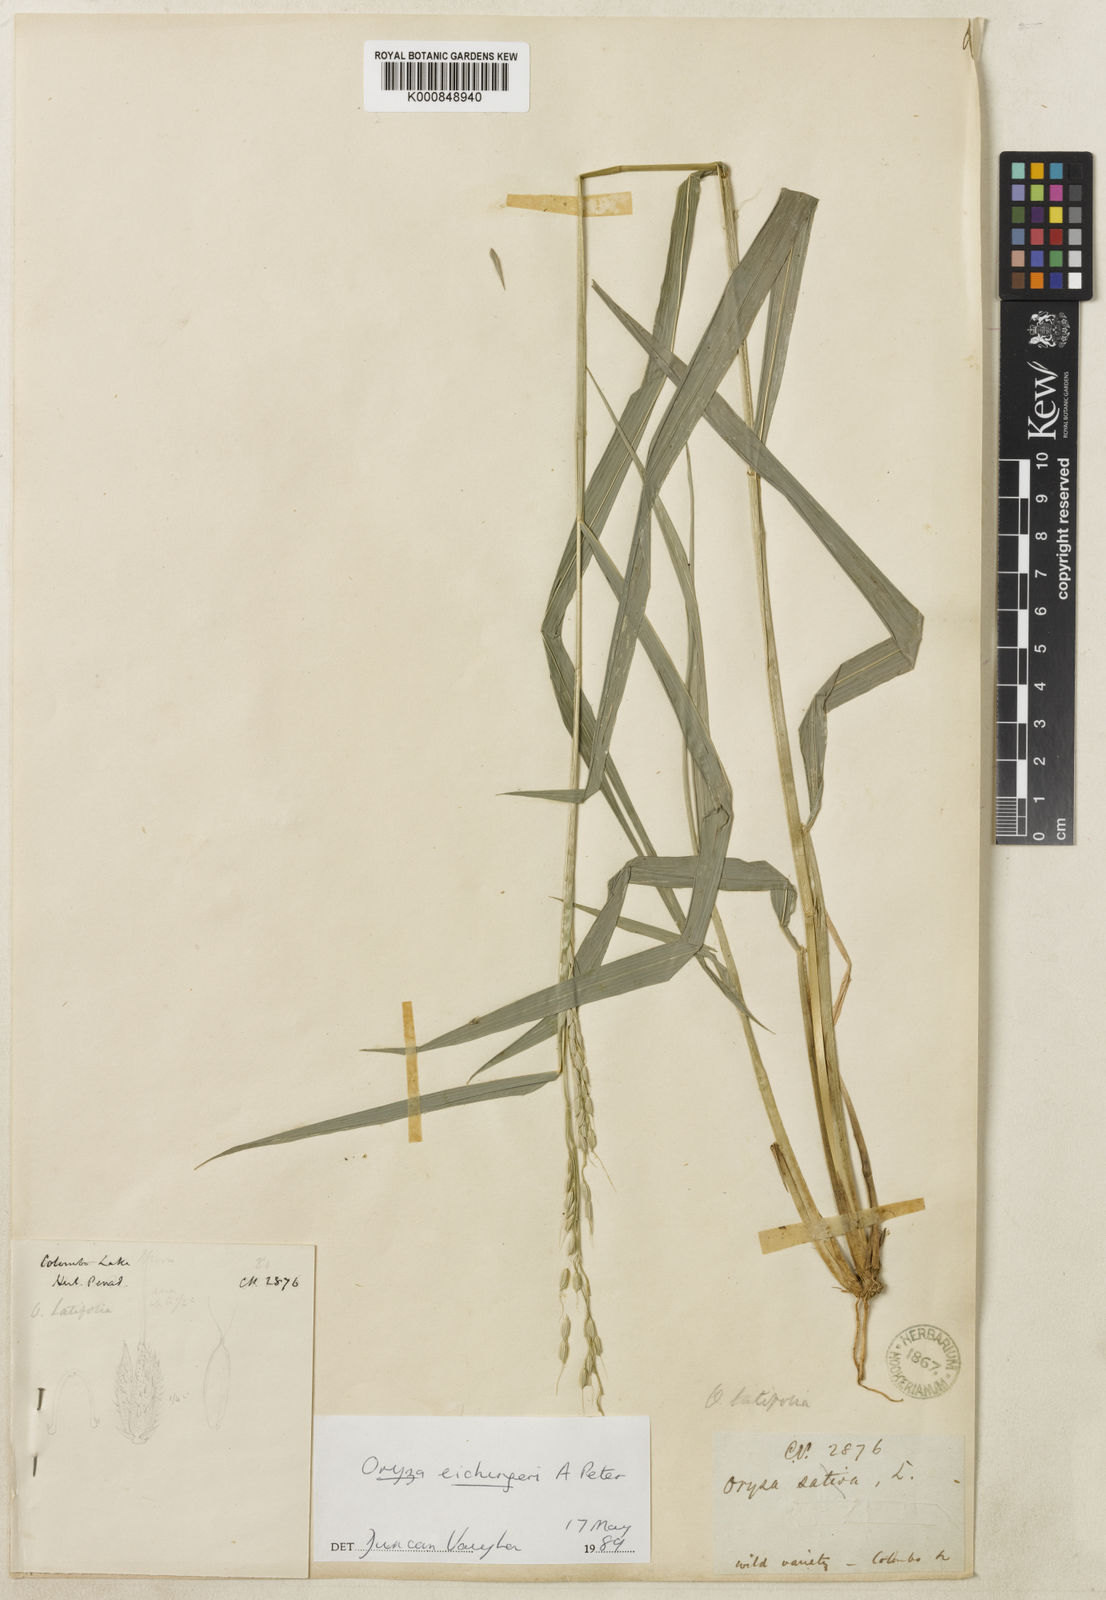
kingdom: Plantae
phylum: Tracheophyta
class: Liliopsida
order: Poales
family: Poaceae
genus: Oryza
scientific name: Oryza eichingeri
